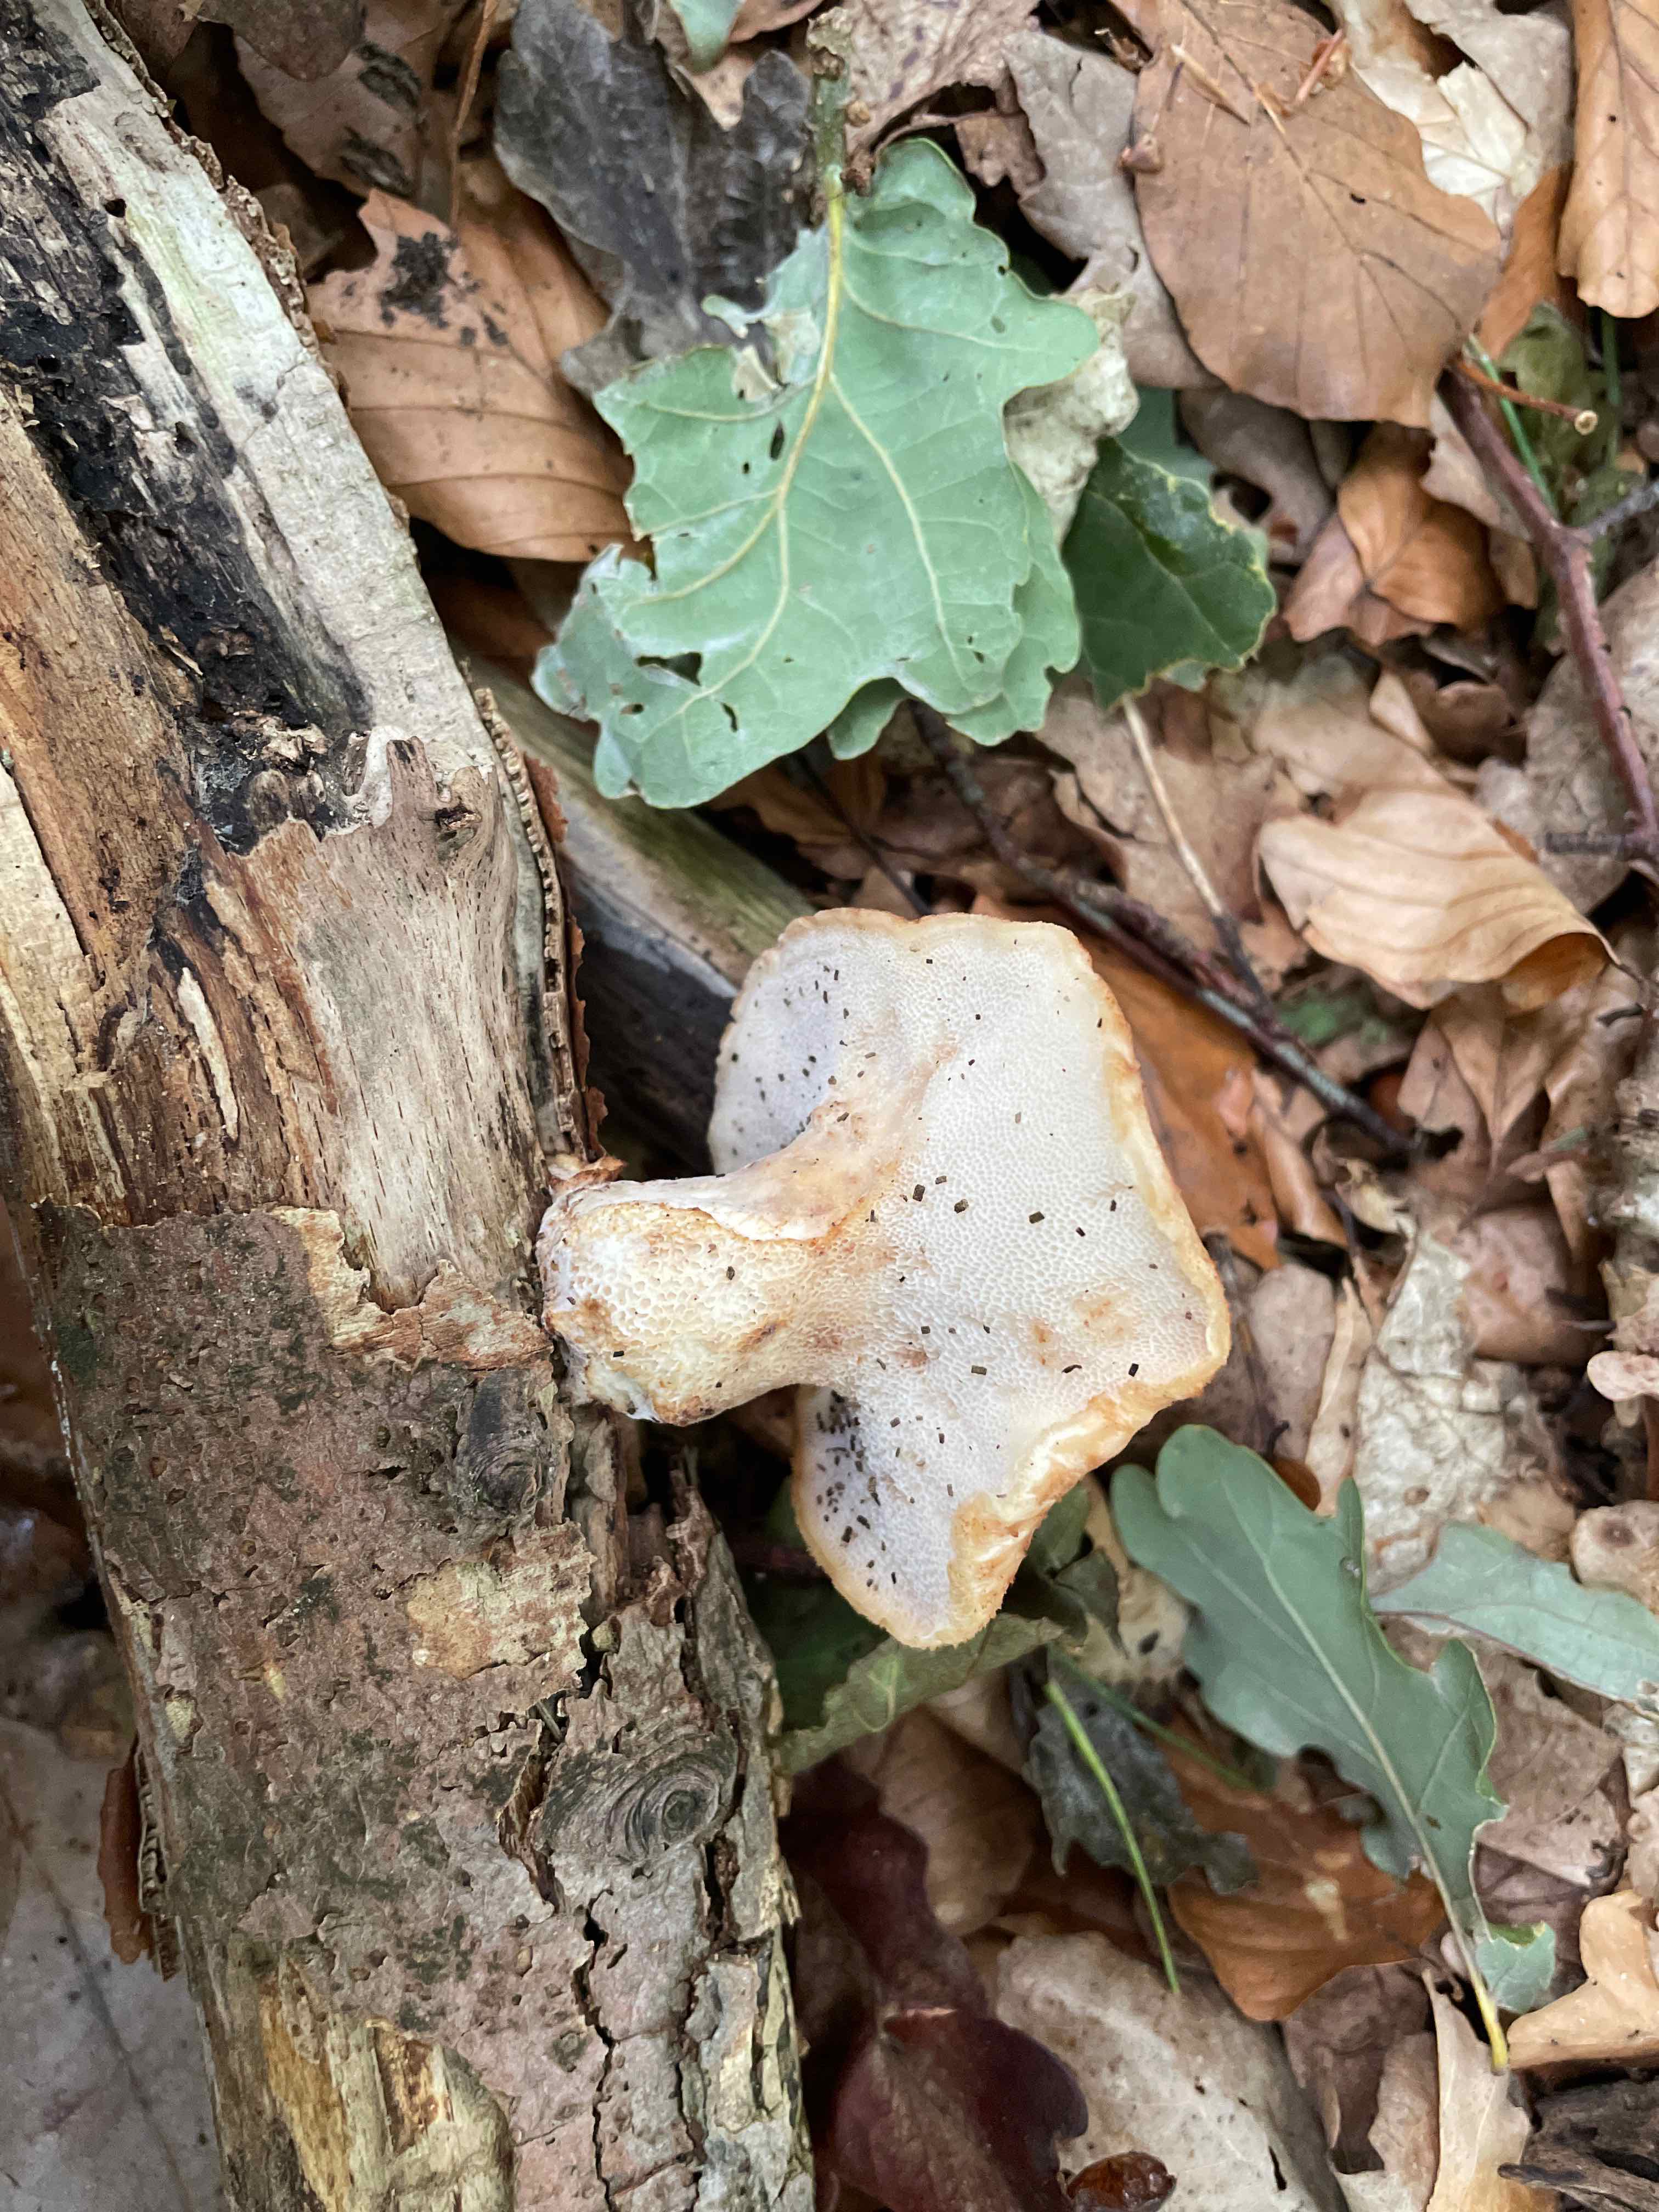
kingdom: Fungi
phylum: Basidiomycota
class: Agaricomycetes
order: Polyporales
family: Polyporaceae
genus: Polyporus
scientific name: Polyporus tuberaster
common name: knoldet stilkporesvamp
